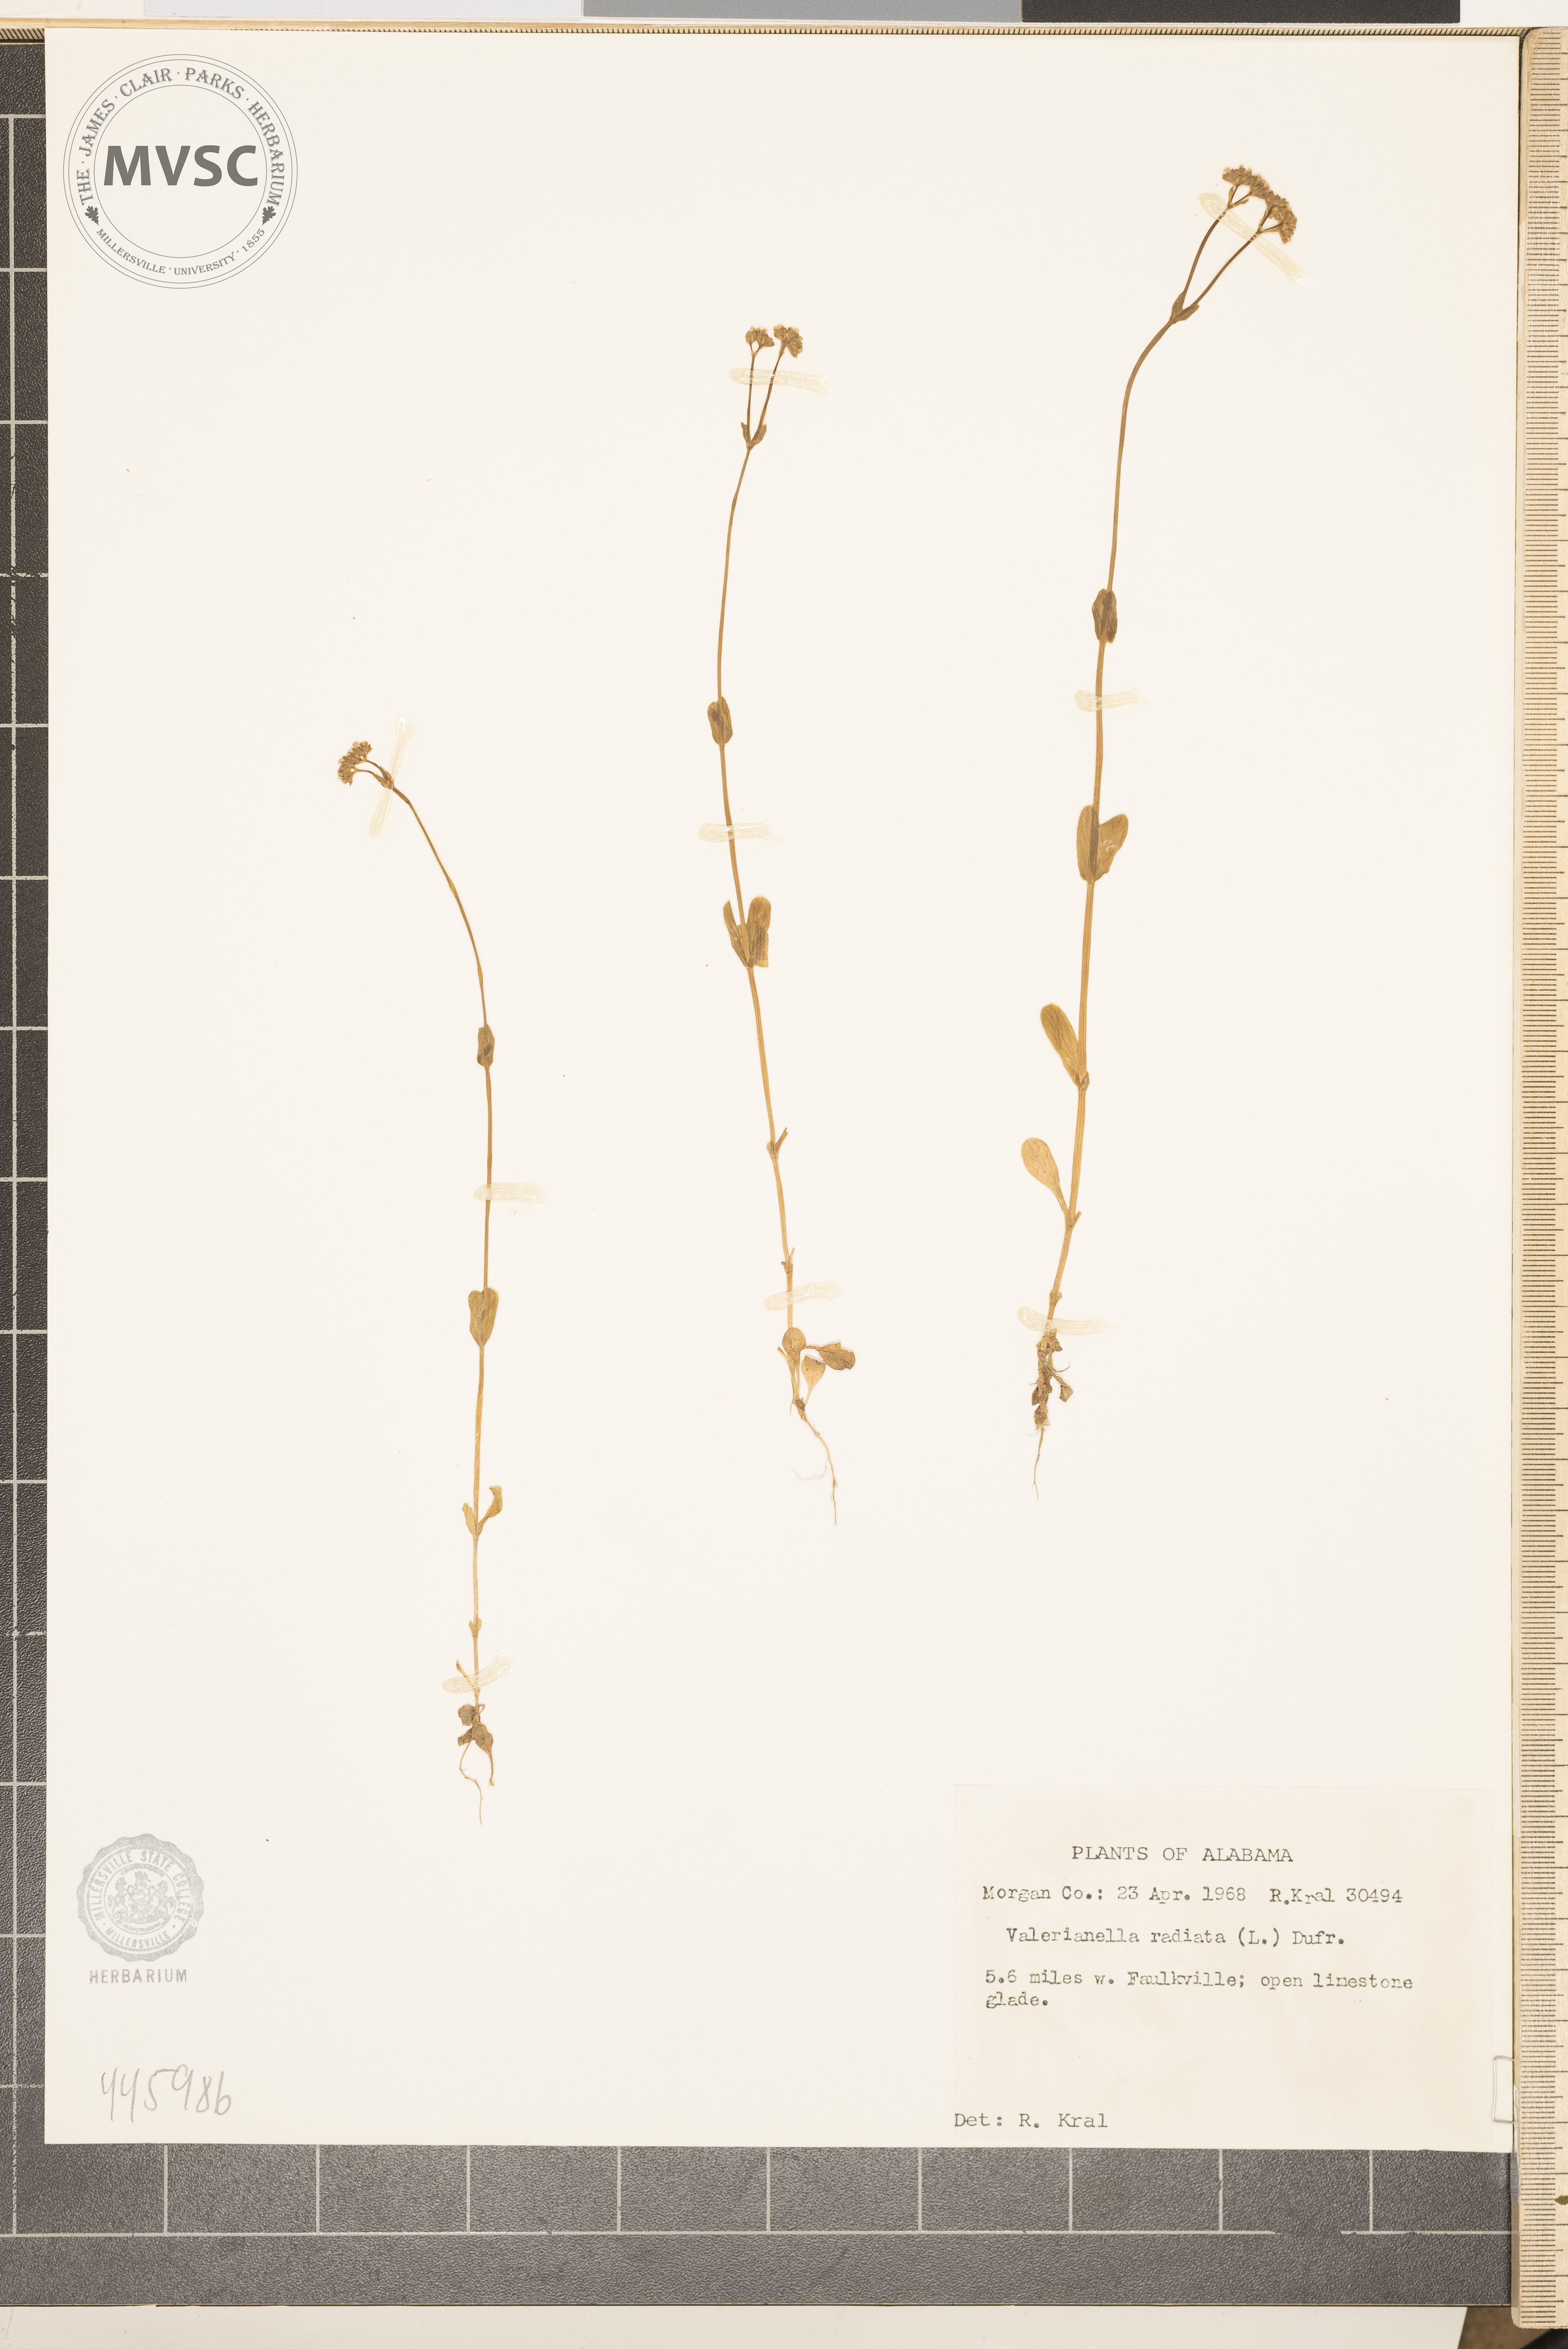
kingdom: Plantae
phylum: Tracheophyta
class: Magnoliopsida
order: Dipsacales
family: Caprifoliaceae
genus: Valerianella
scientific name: Valerianella radiata
